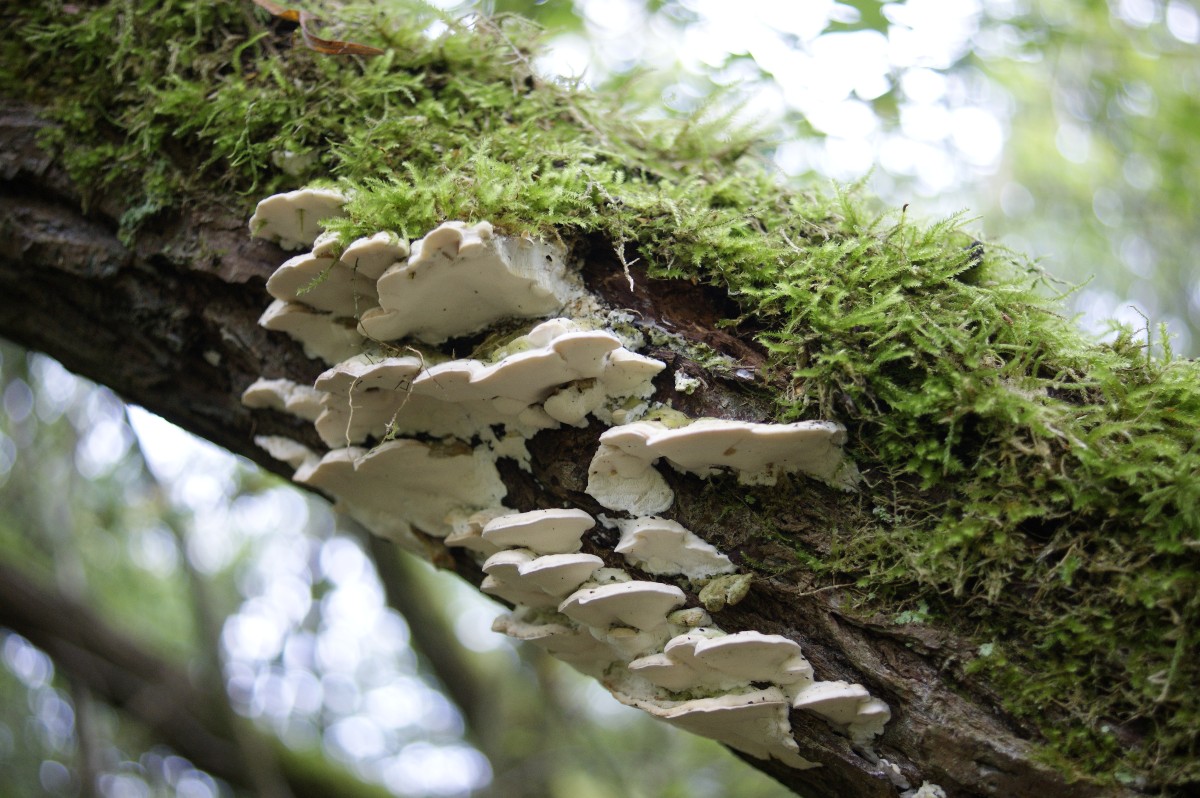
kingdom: Fungi
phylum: Basidiomycota
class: Agaricomycetes
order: Hymenochaetales
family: Oxyporaceae
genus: Oxyporus
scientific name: Oxyporus populinus
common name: sammenvokset trylleporesvamp
